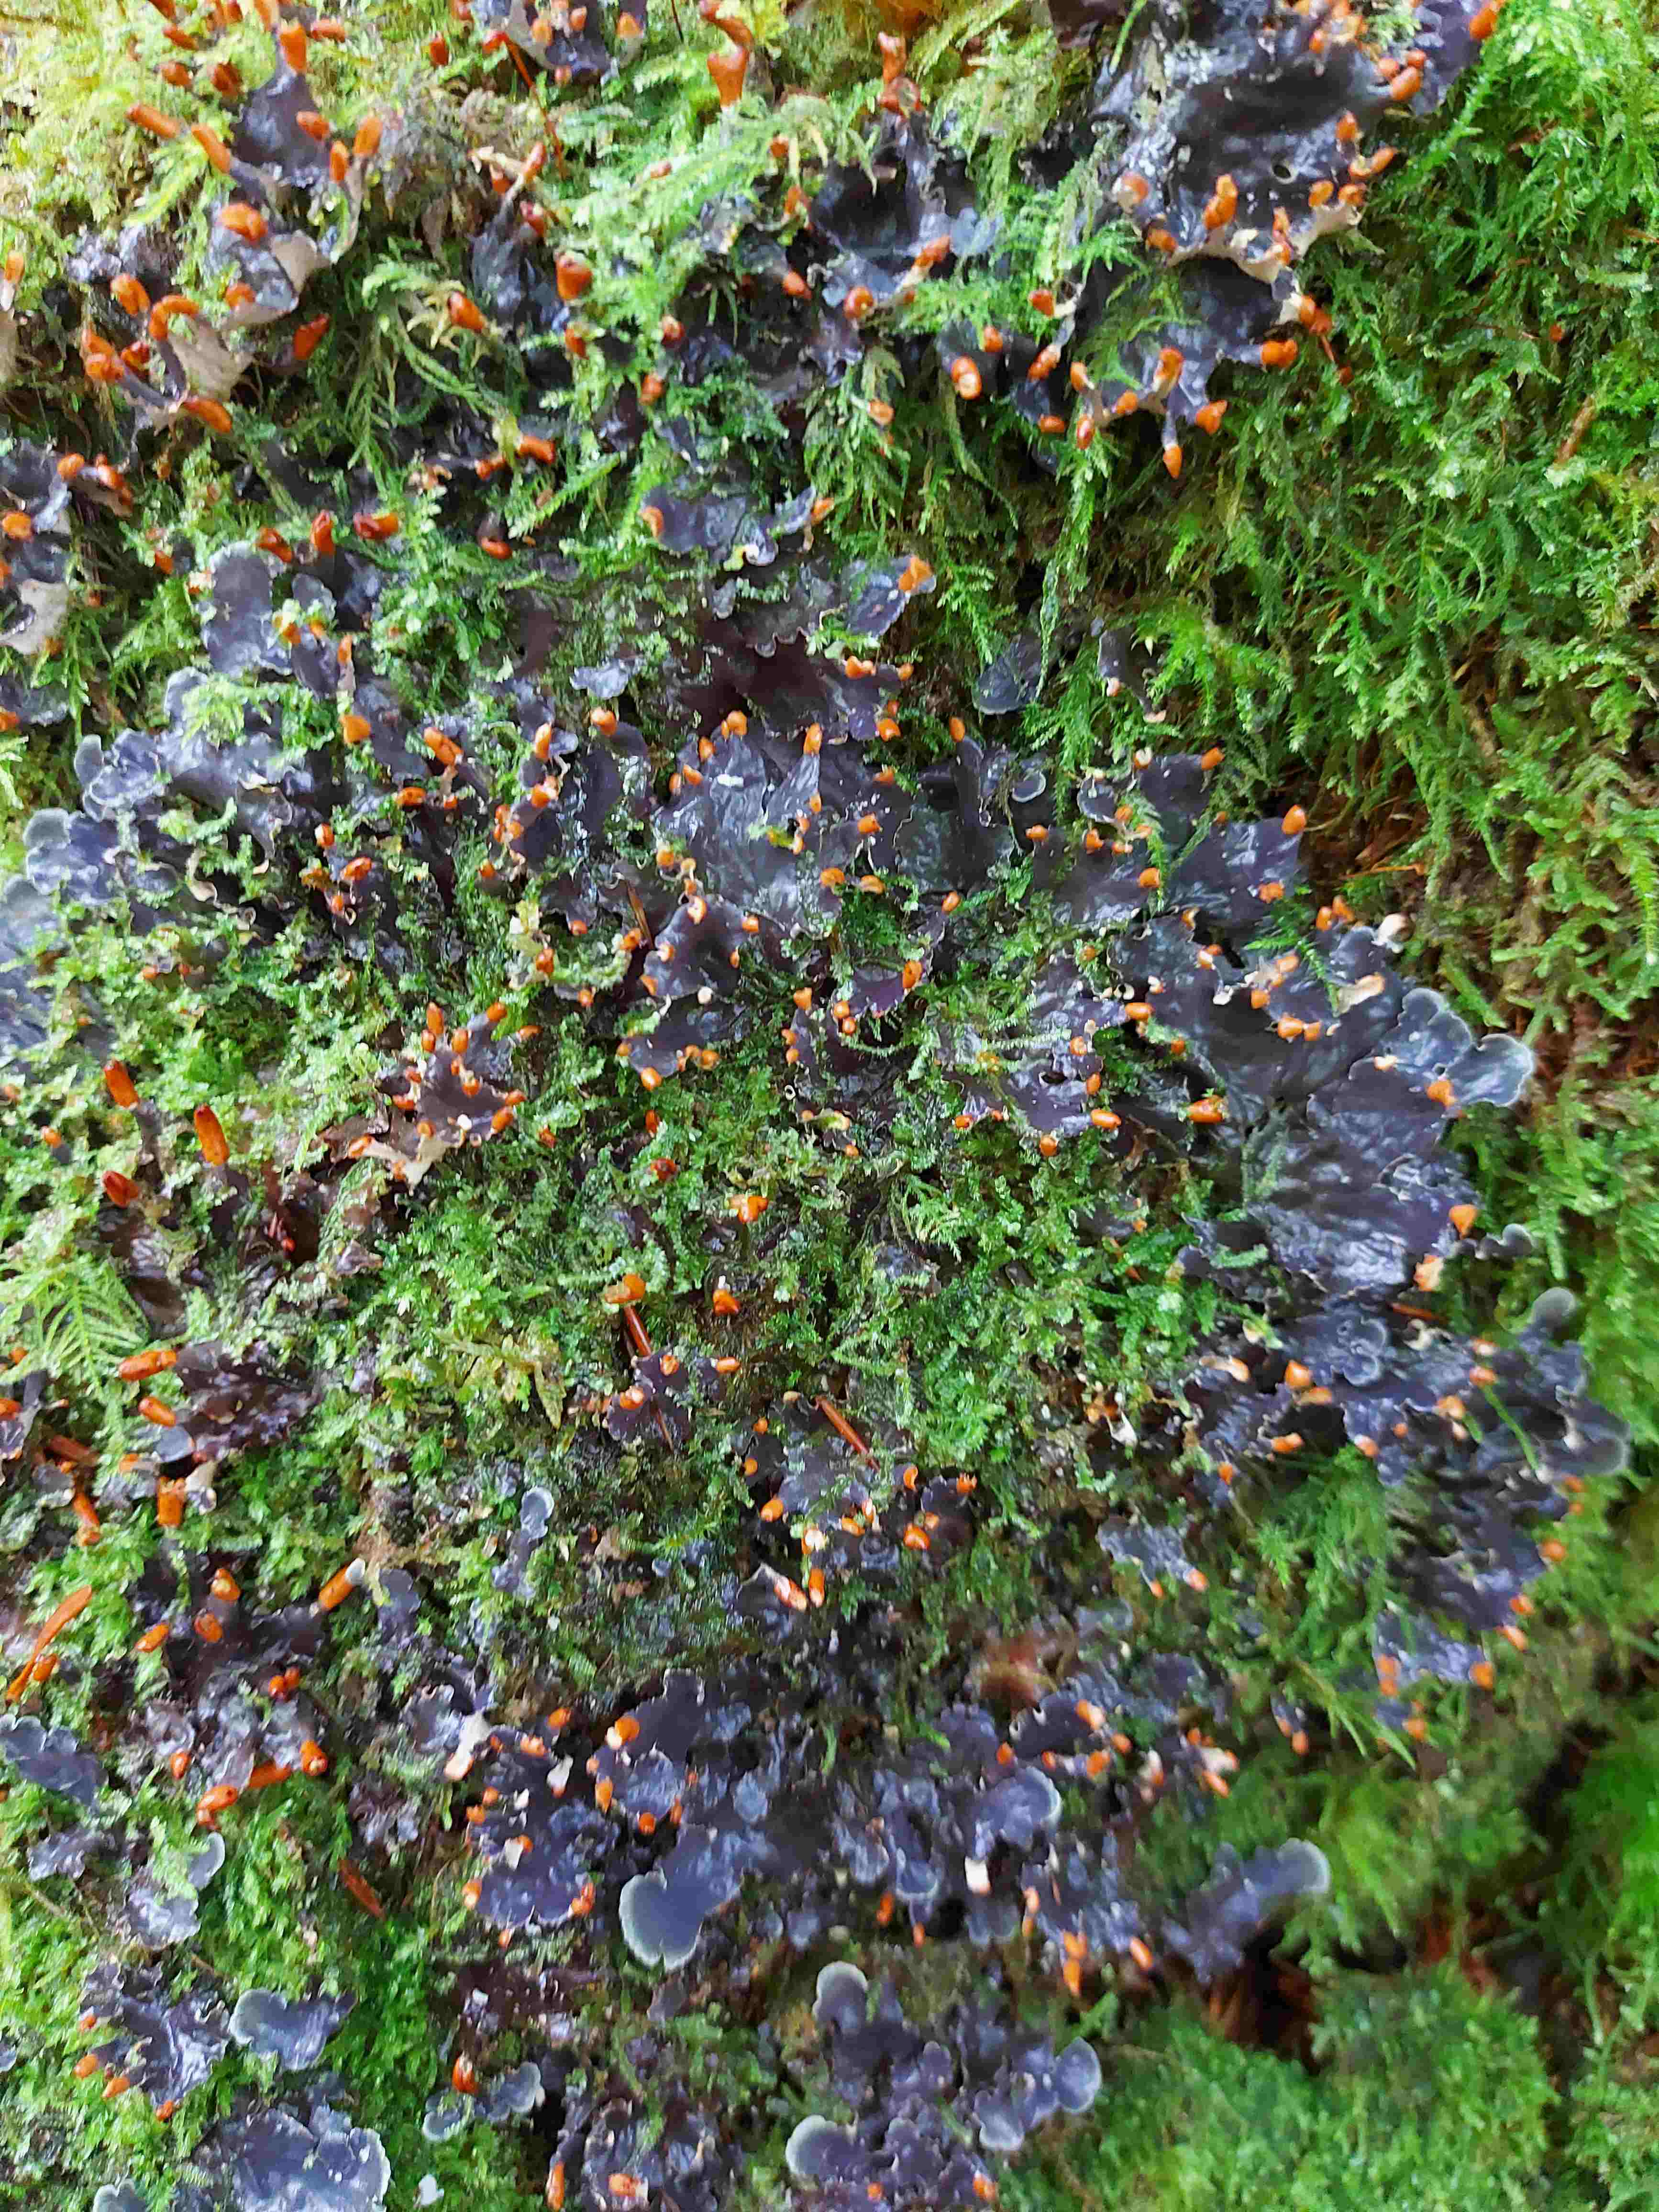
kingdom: Fungi
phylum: Ascomycota
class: Lecanoromycetes
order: Peltigerales
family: Peltigeraceae
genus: Peltigera
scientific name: Peltigera hymenina
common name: hinde-skjoldlav
